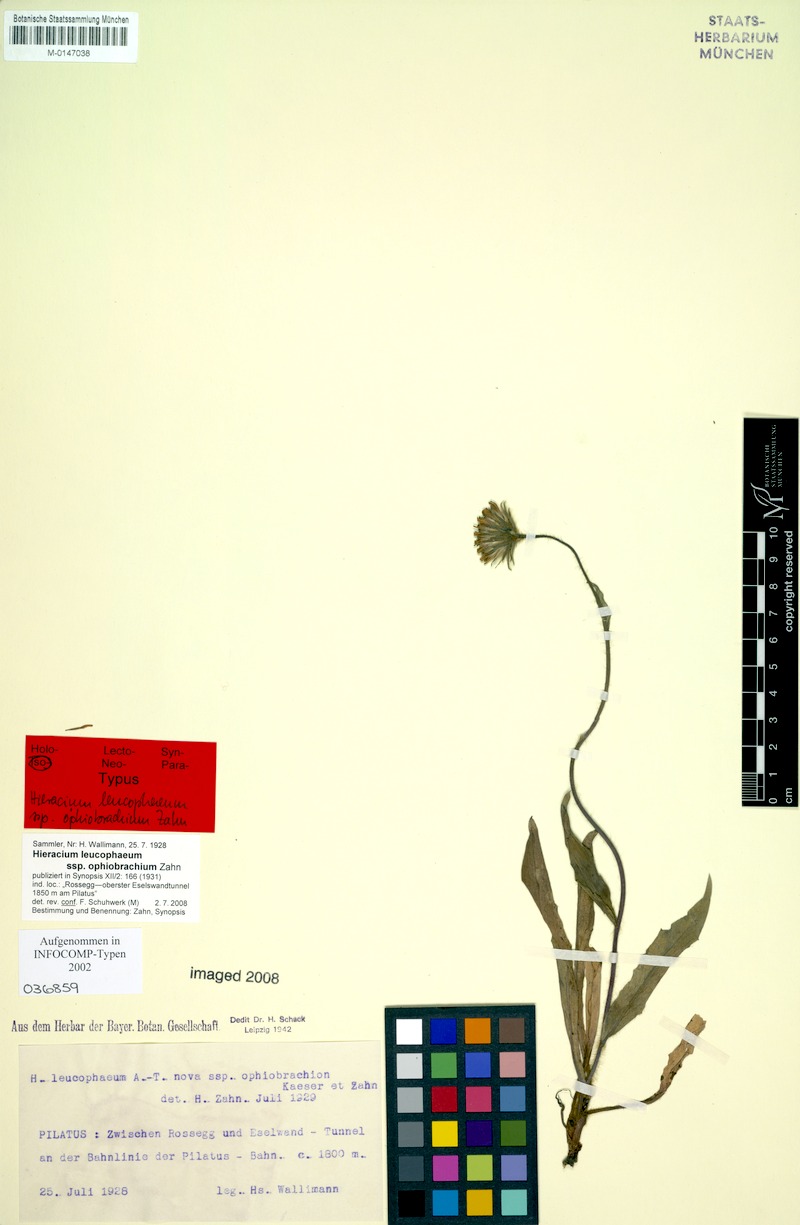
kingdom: Plantae
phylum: Tracheophyta
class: Magnoliopsida
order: Asterales
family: Asteraceae
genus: Hieracium
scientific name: Hieracium leucophaeum
